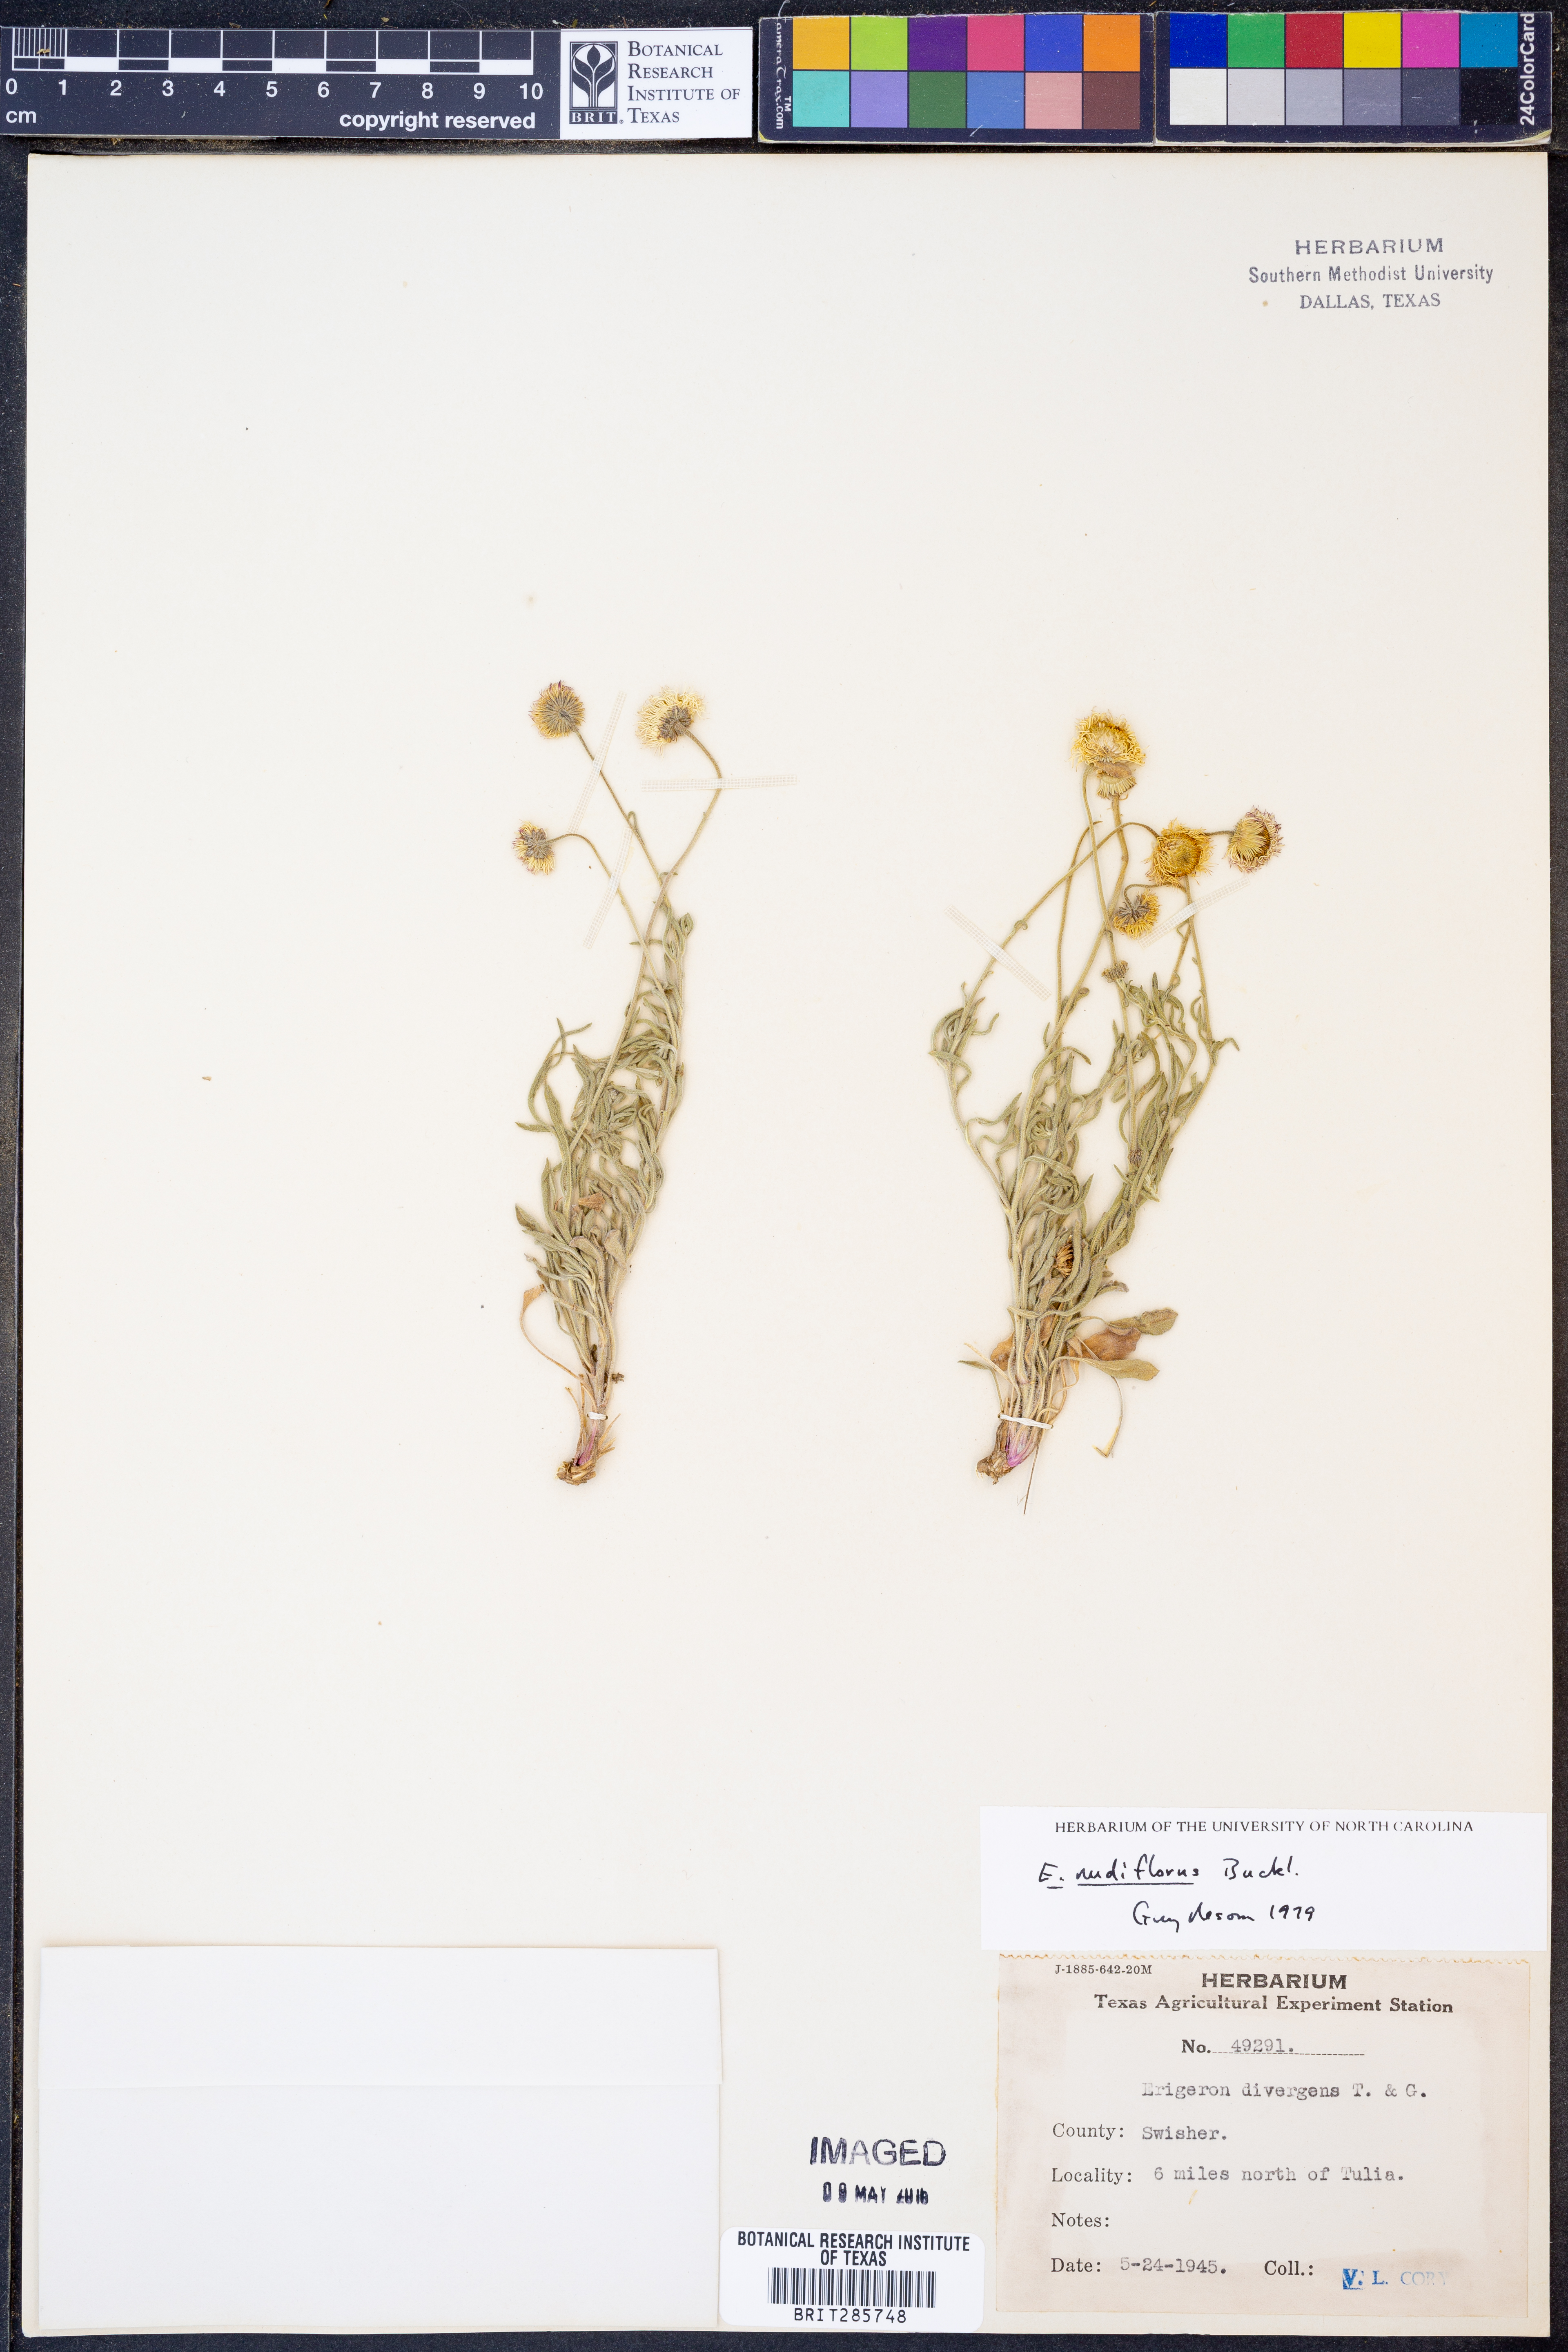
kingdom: Plantae
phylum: Tracheophyta
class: Magnoliopsida
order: Asterales
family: Asteraceae
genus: Erigeron
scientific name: Erigeron flagellaris
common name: Running fleabane
